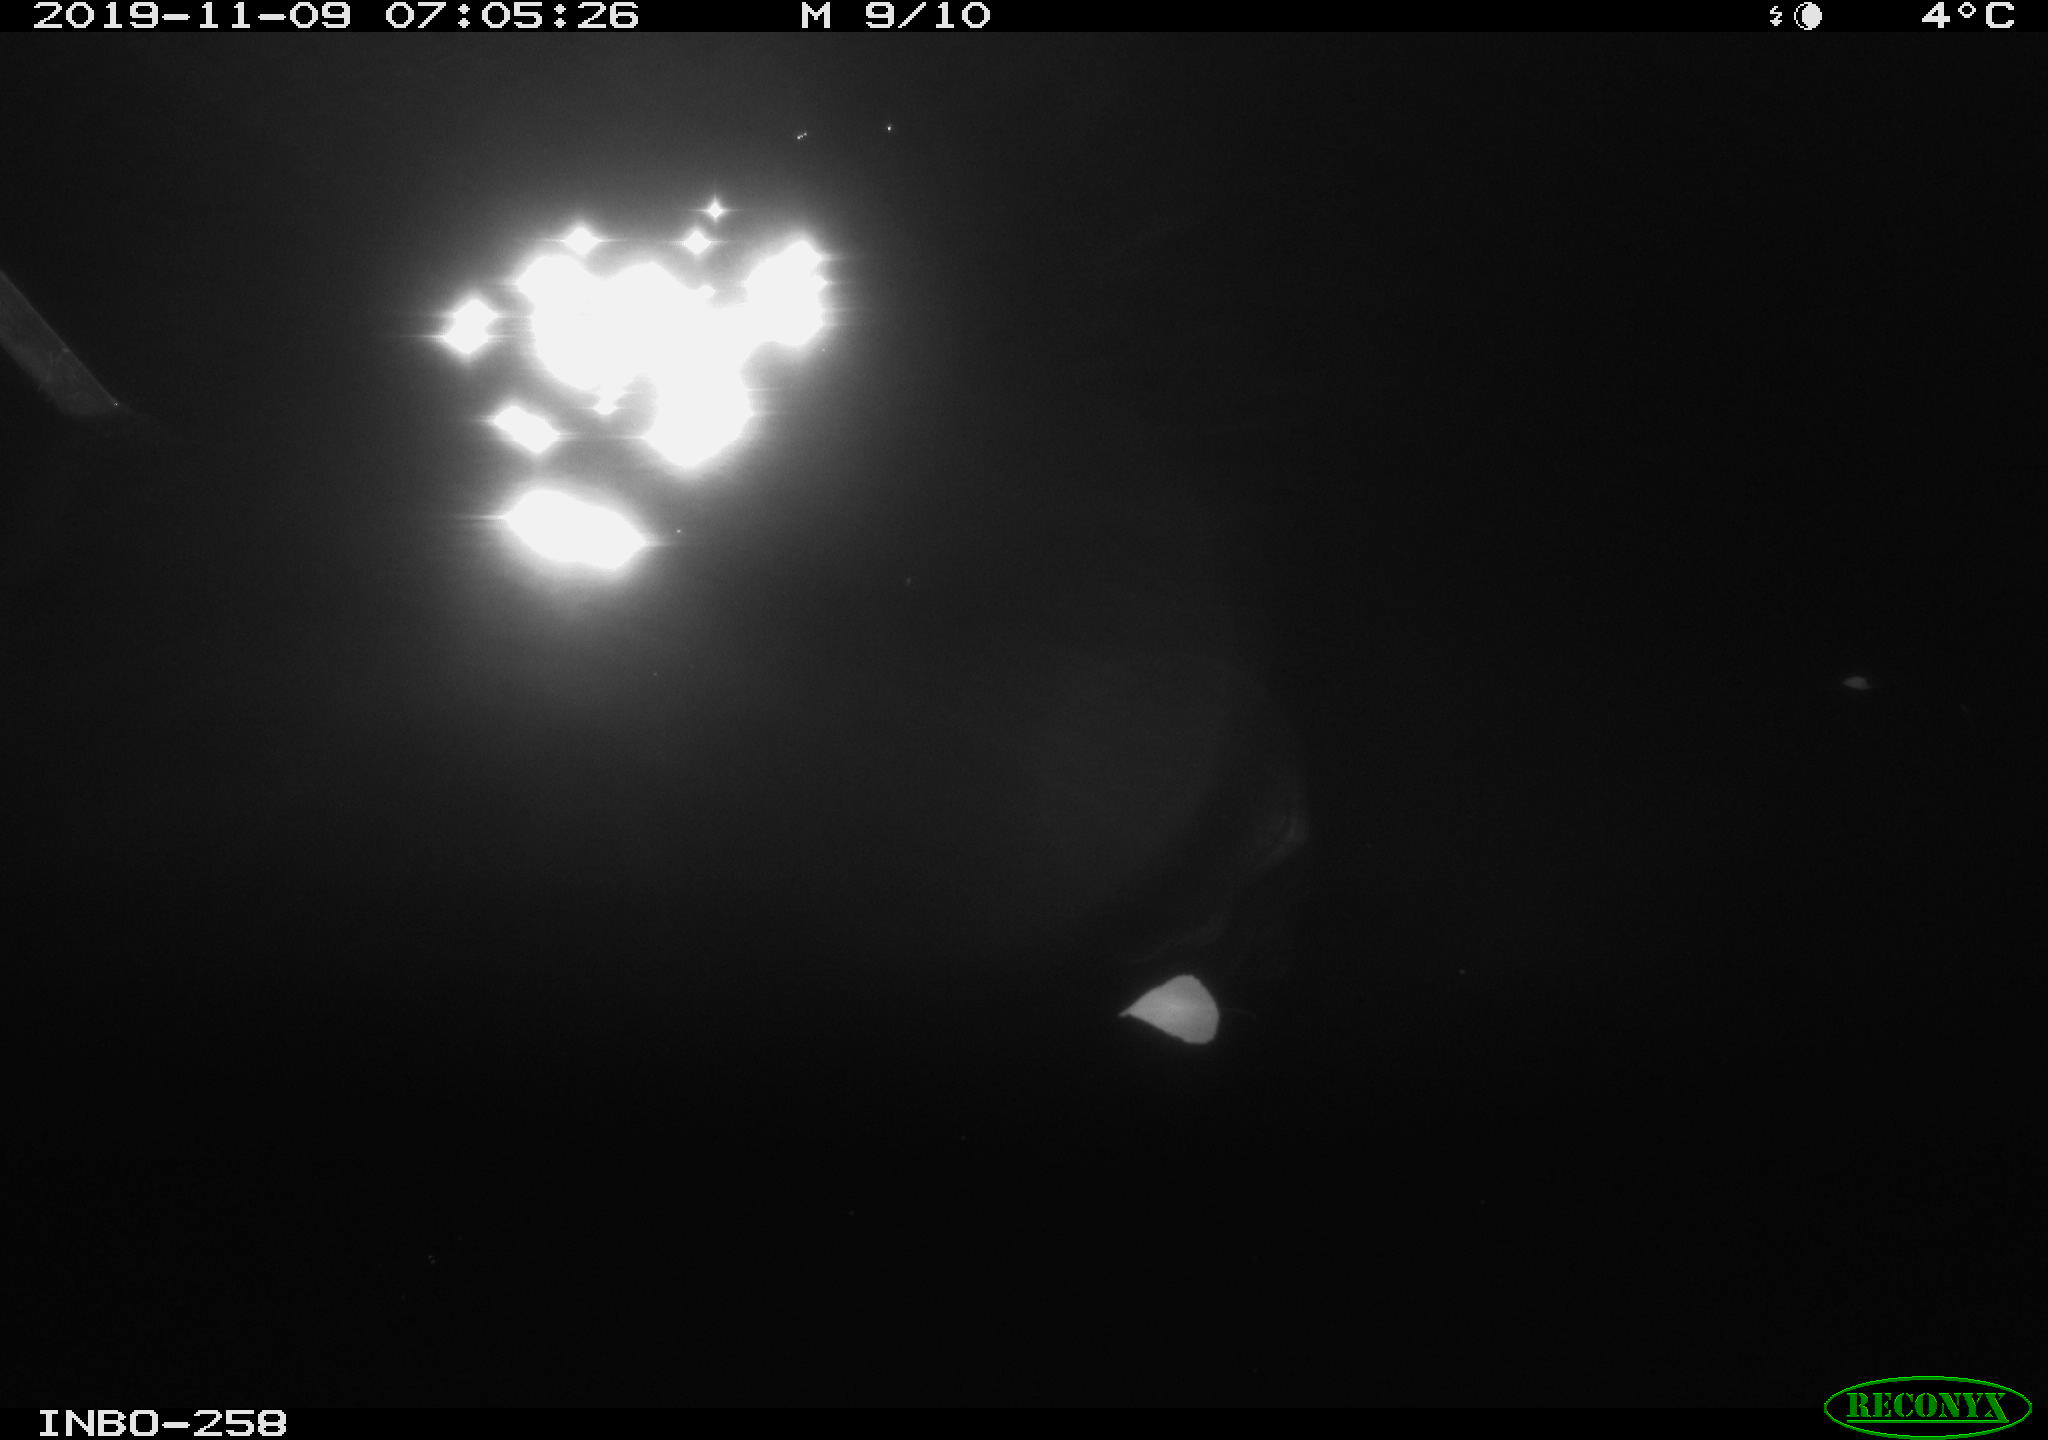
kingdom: Animalia
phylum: Chordata
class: Aves
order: Anseriformes
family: Anatidae
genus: Anas
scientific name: Anas platyrhynchos
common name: Mallard
